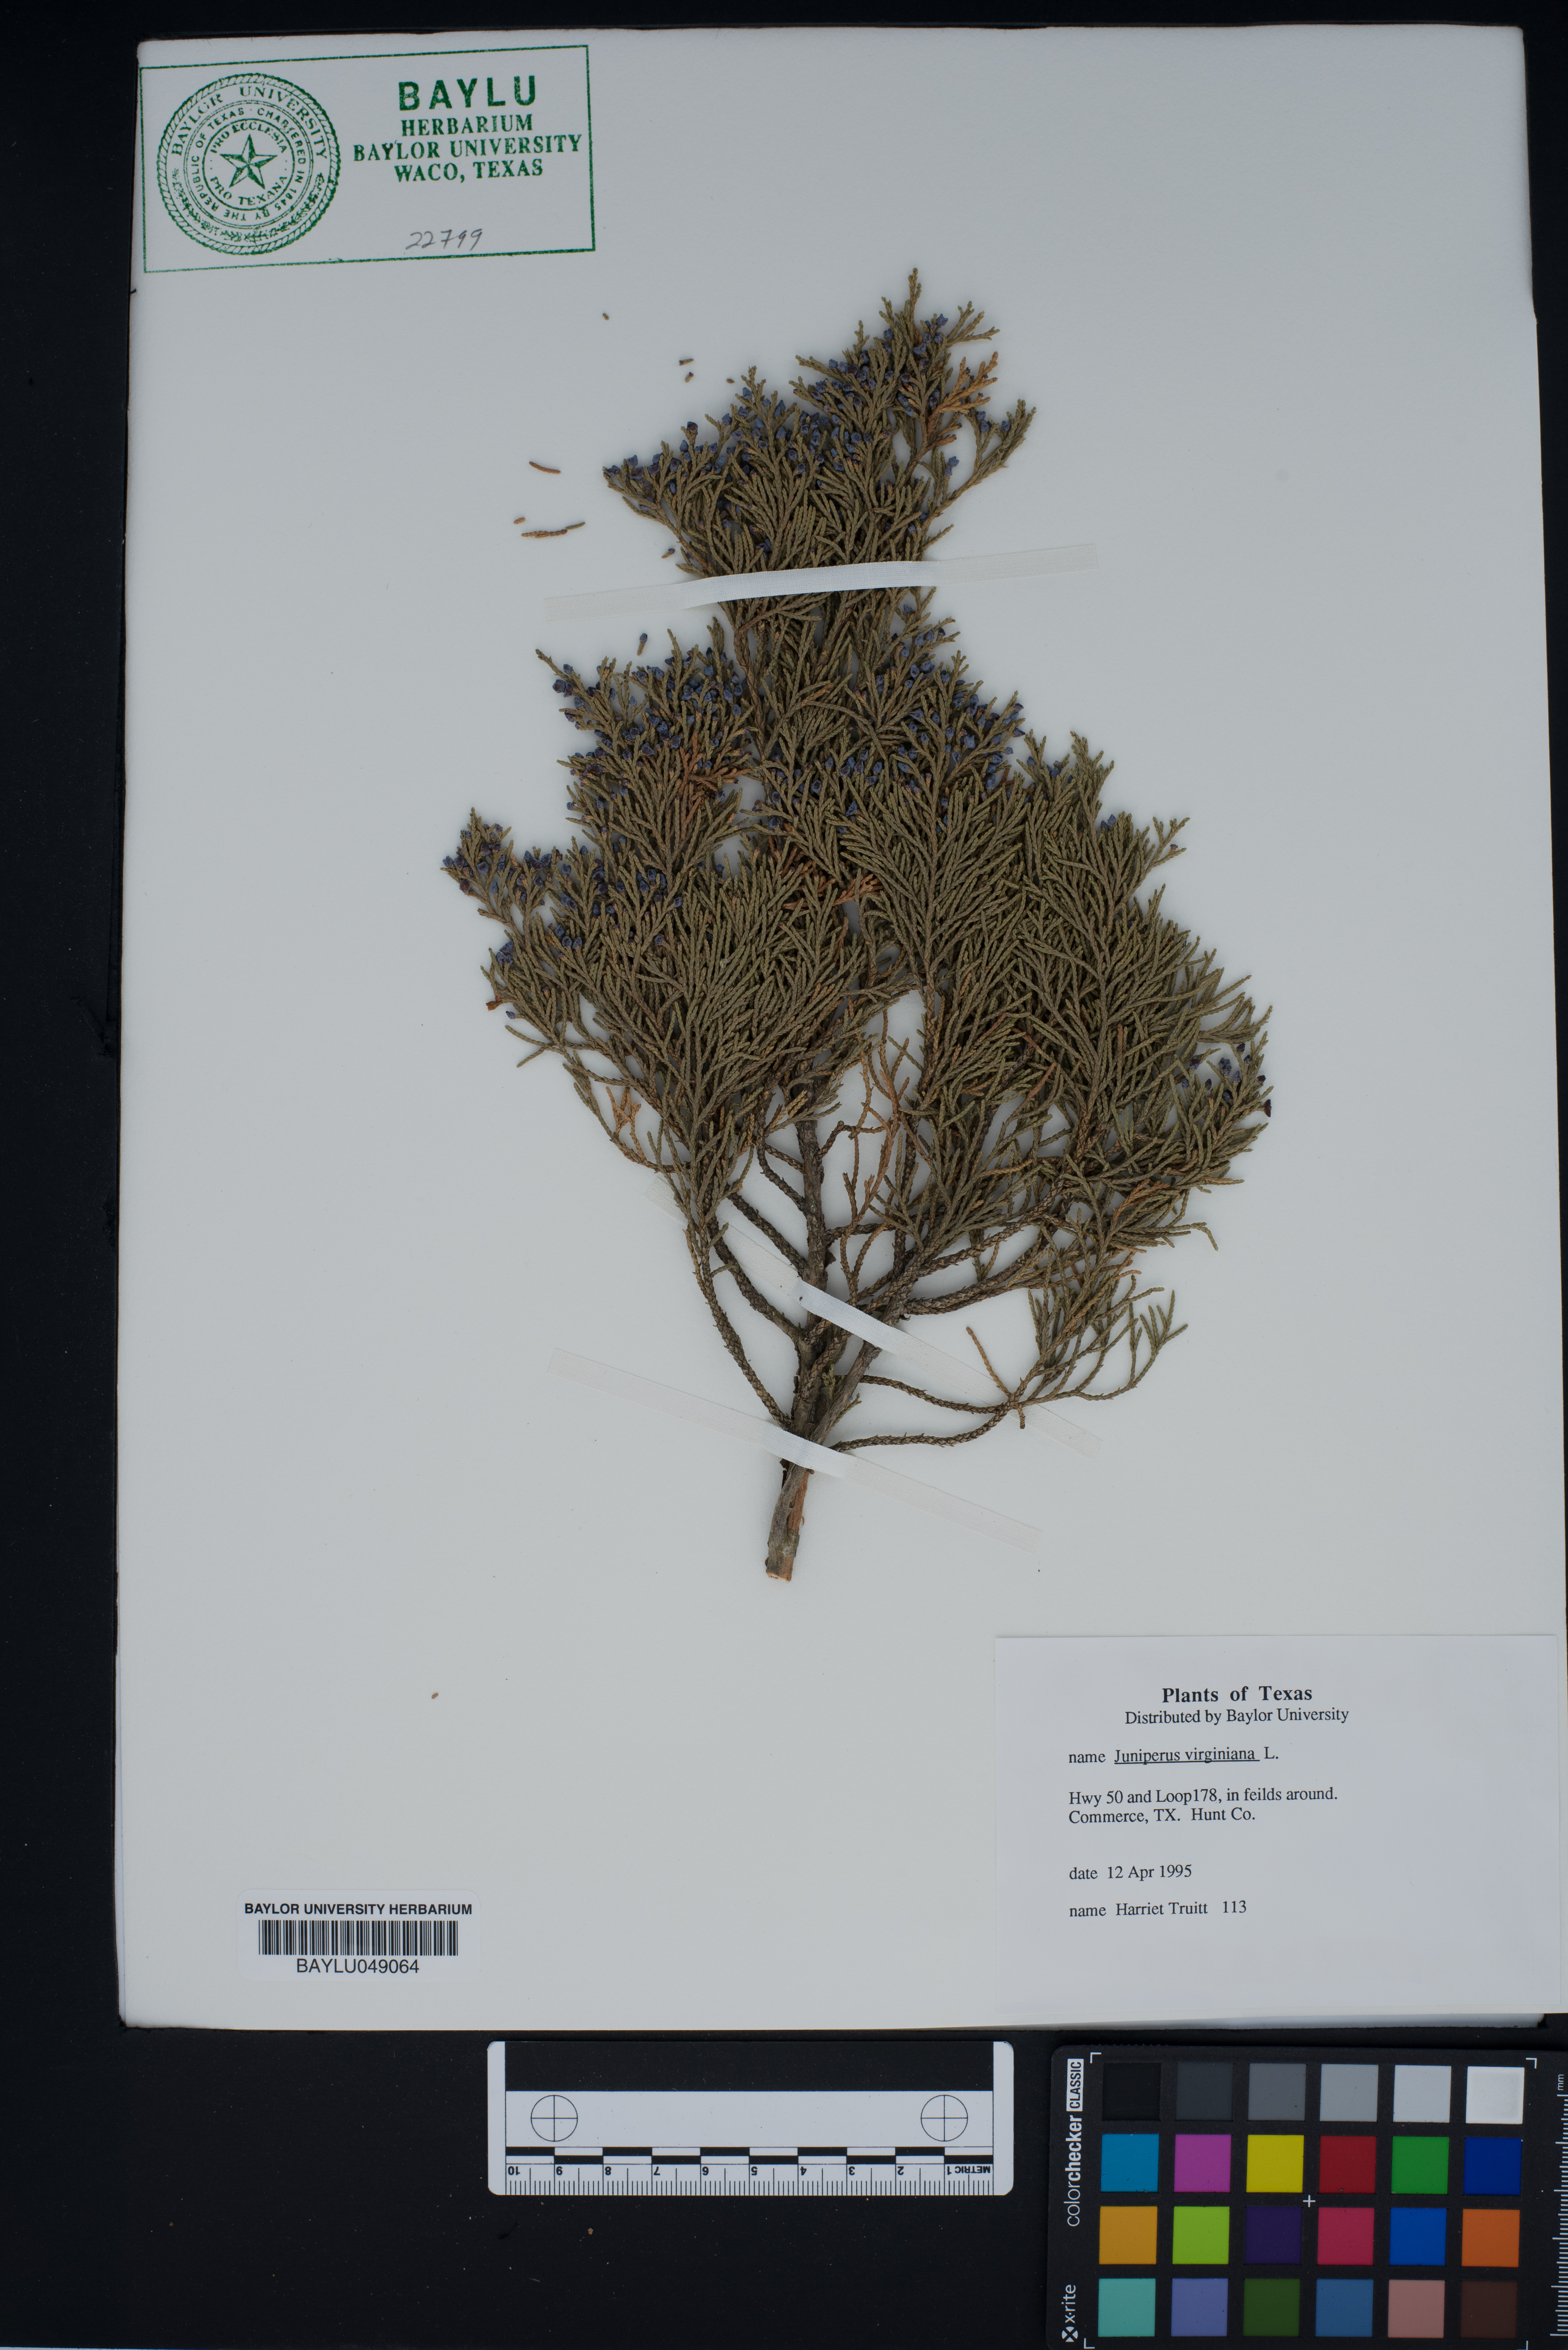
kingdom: Plantae
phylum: Tracheophyta
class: Pinopsida
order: Pinales
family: Cupressaceae
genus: Juniperus
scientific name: Juniperus virginiana
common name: Red juniper
